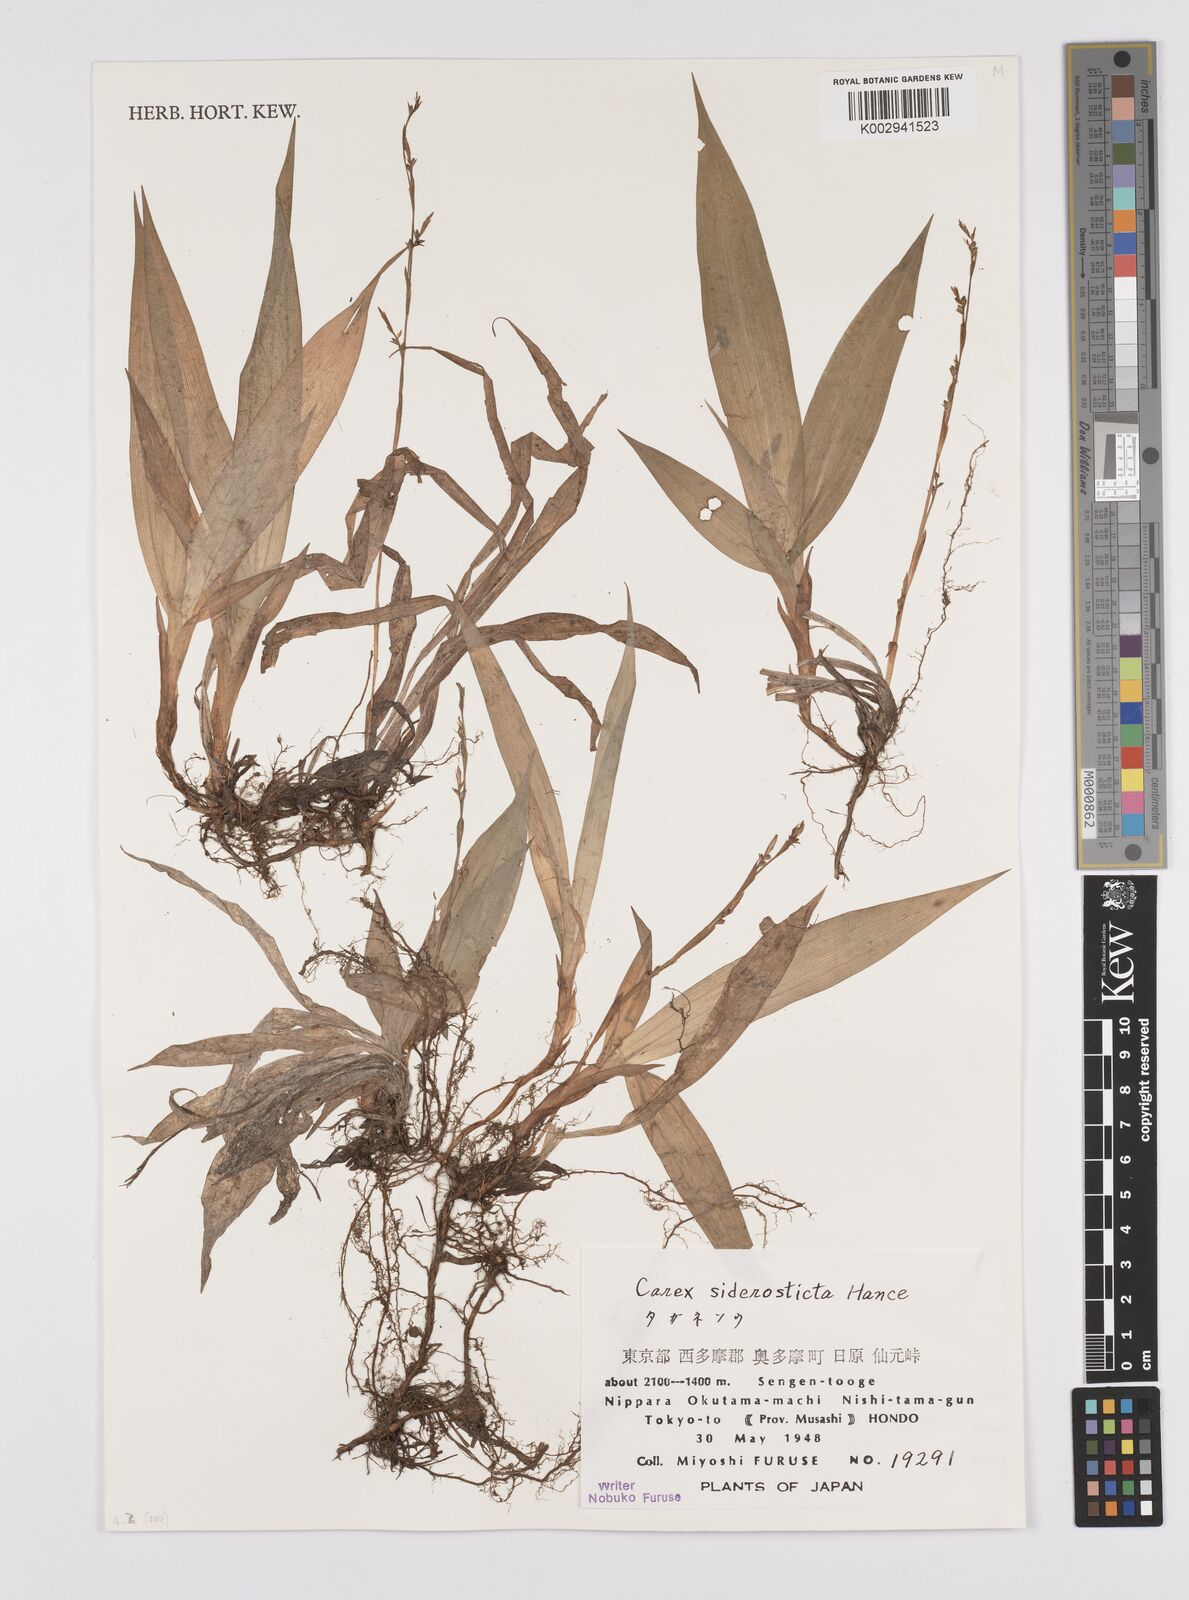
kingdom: Plantae
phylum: Tracheophyta
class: Liliopsida
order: Poales
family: Cyperaceae
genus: Carex
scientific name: Carex siderosticta
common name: Broadleaf sedge
